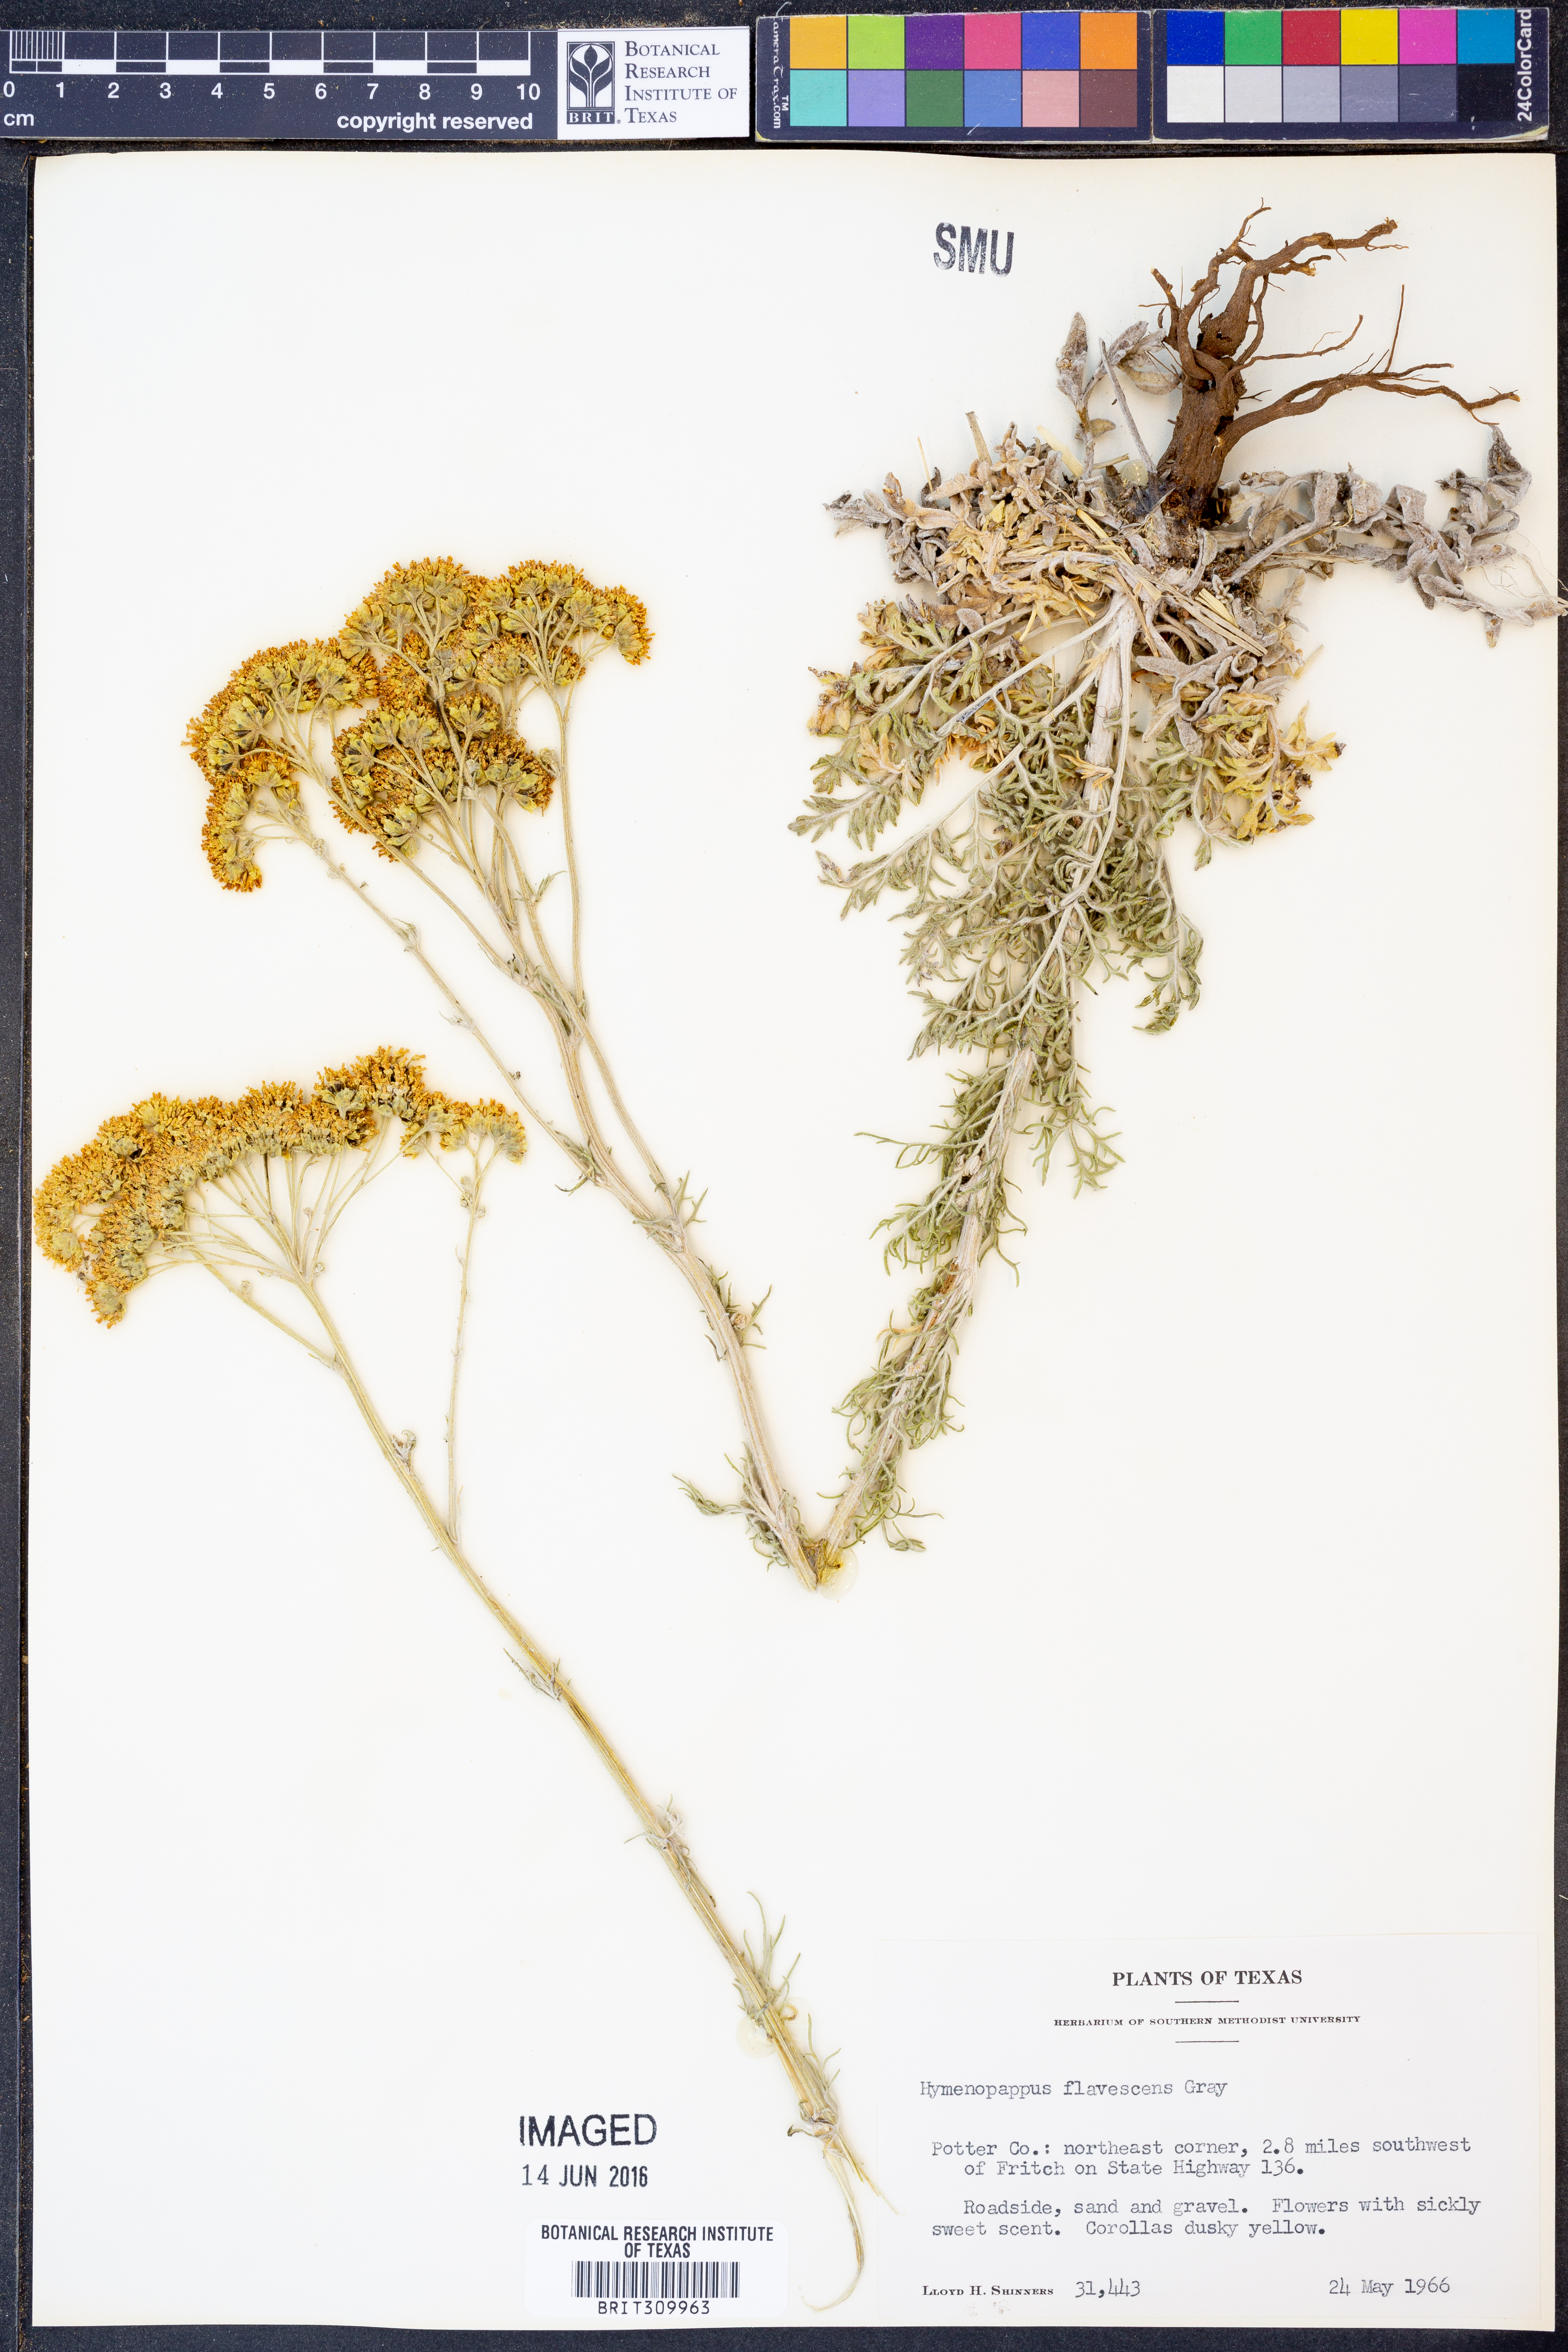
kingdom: Plantae
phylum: Tracheophyta
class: Magnoliopsida
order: Asterales
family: Asteraceae
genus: Hymenopappus
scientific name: Hymenopappus flavescens
